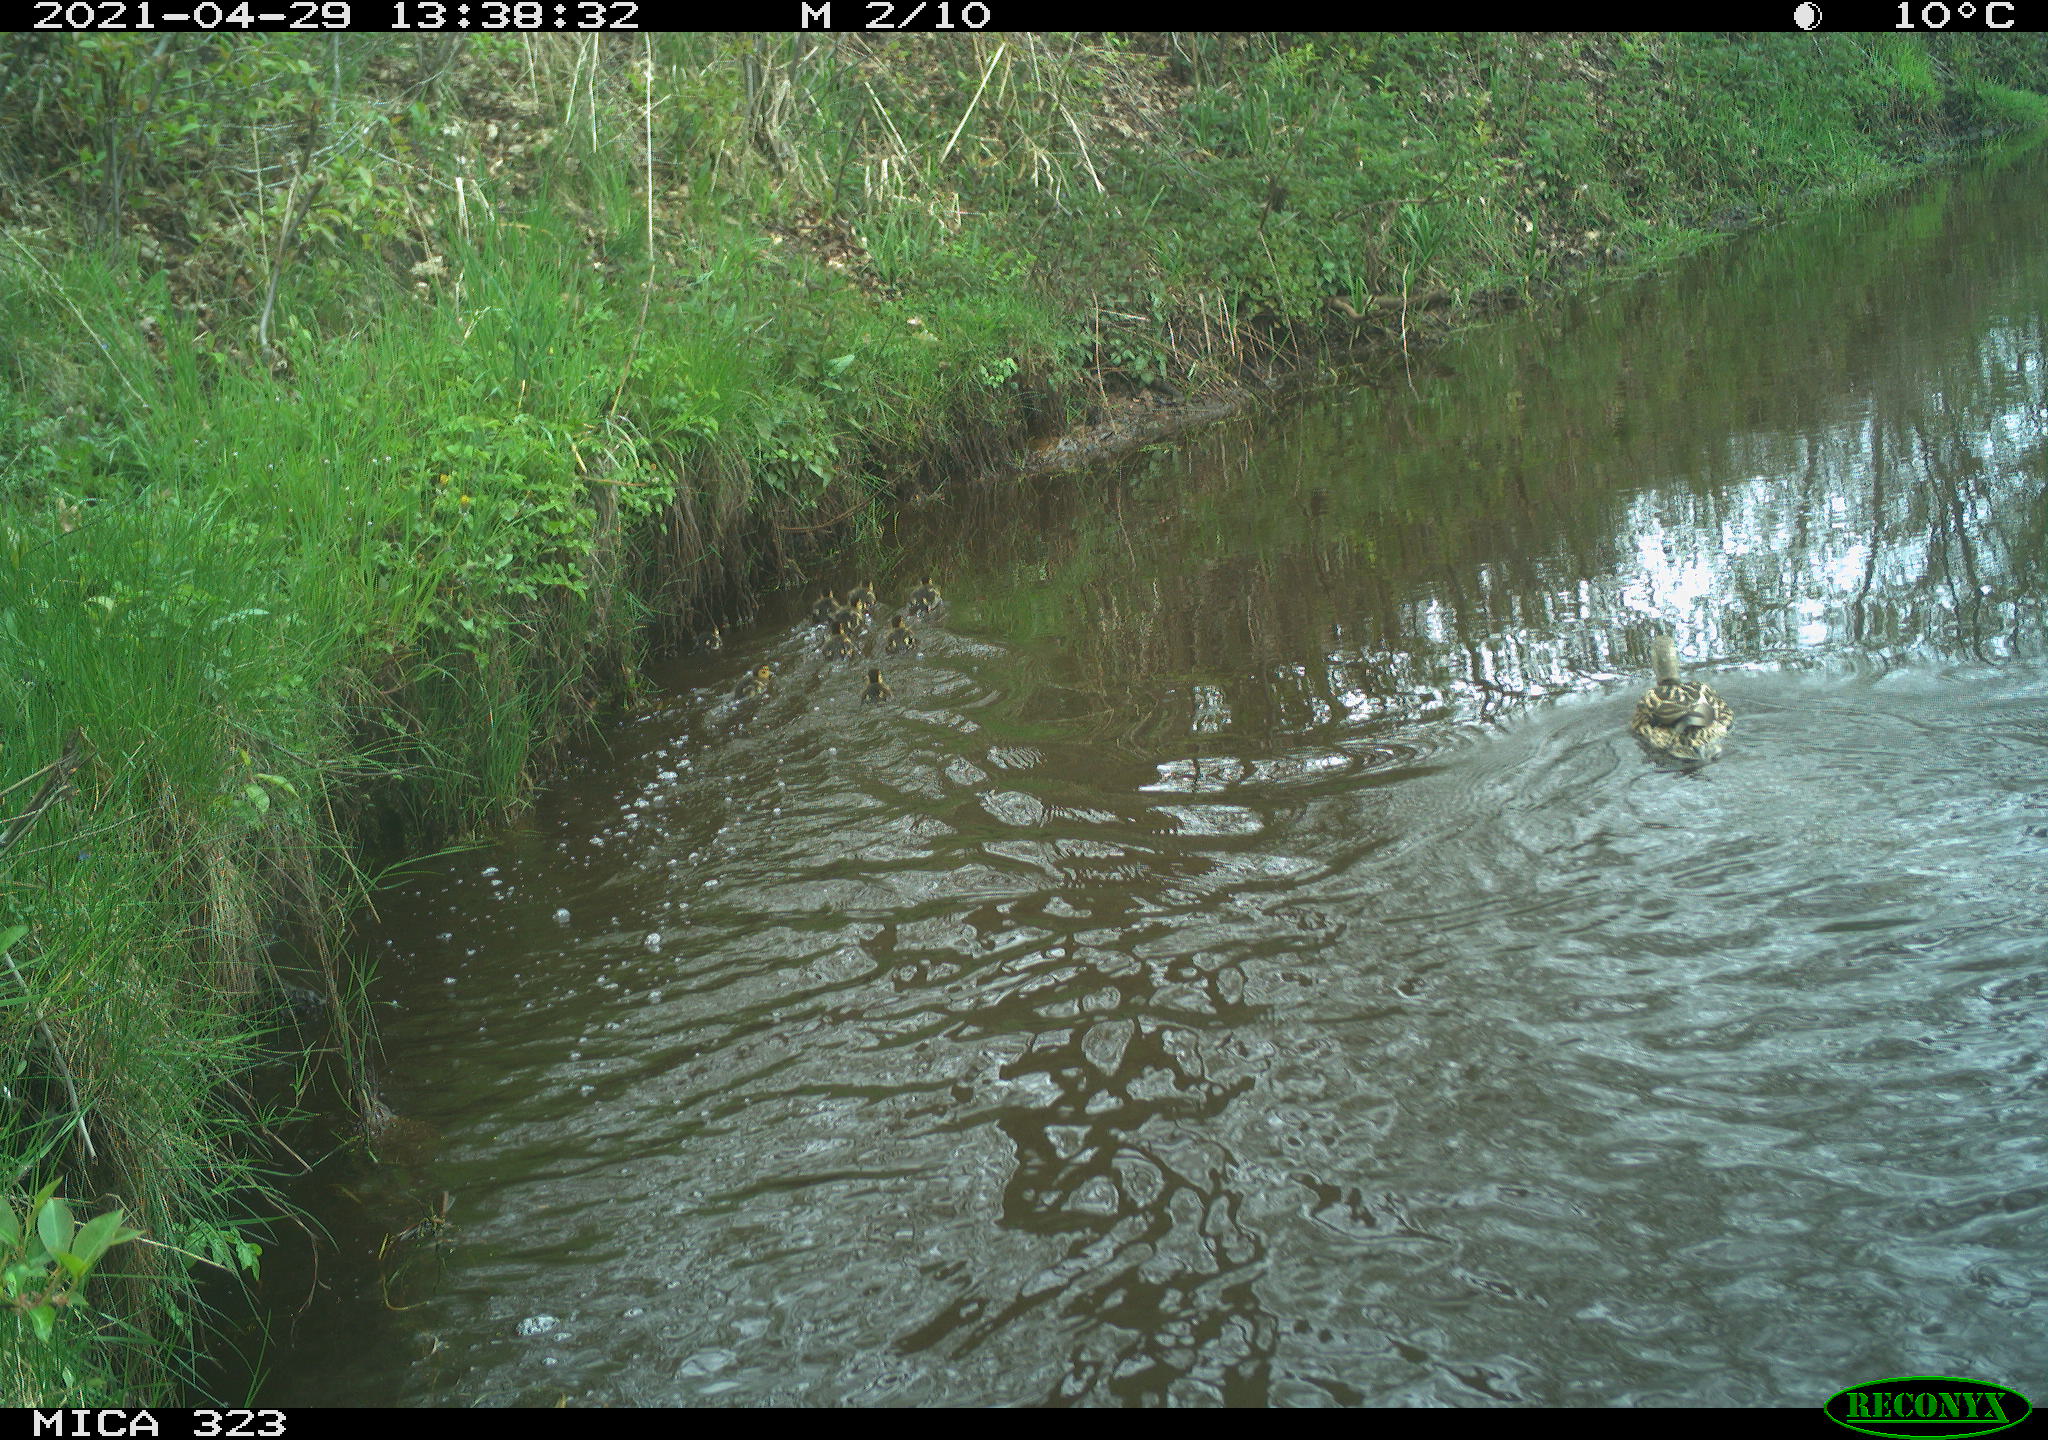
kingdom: Animalia
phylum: Chordata
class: Aves
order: Anseriformes
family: Anatidae
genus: Anas
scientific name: Anas platyrhynchos
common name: Mallard
